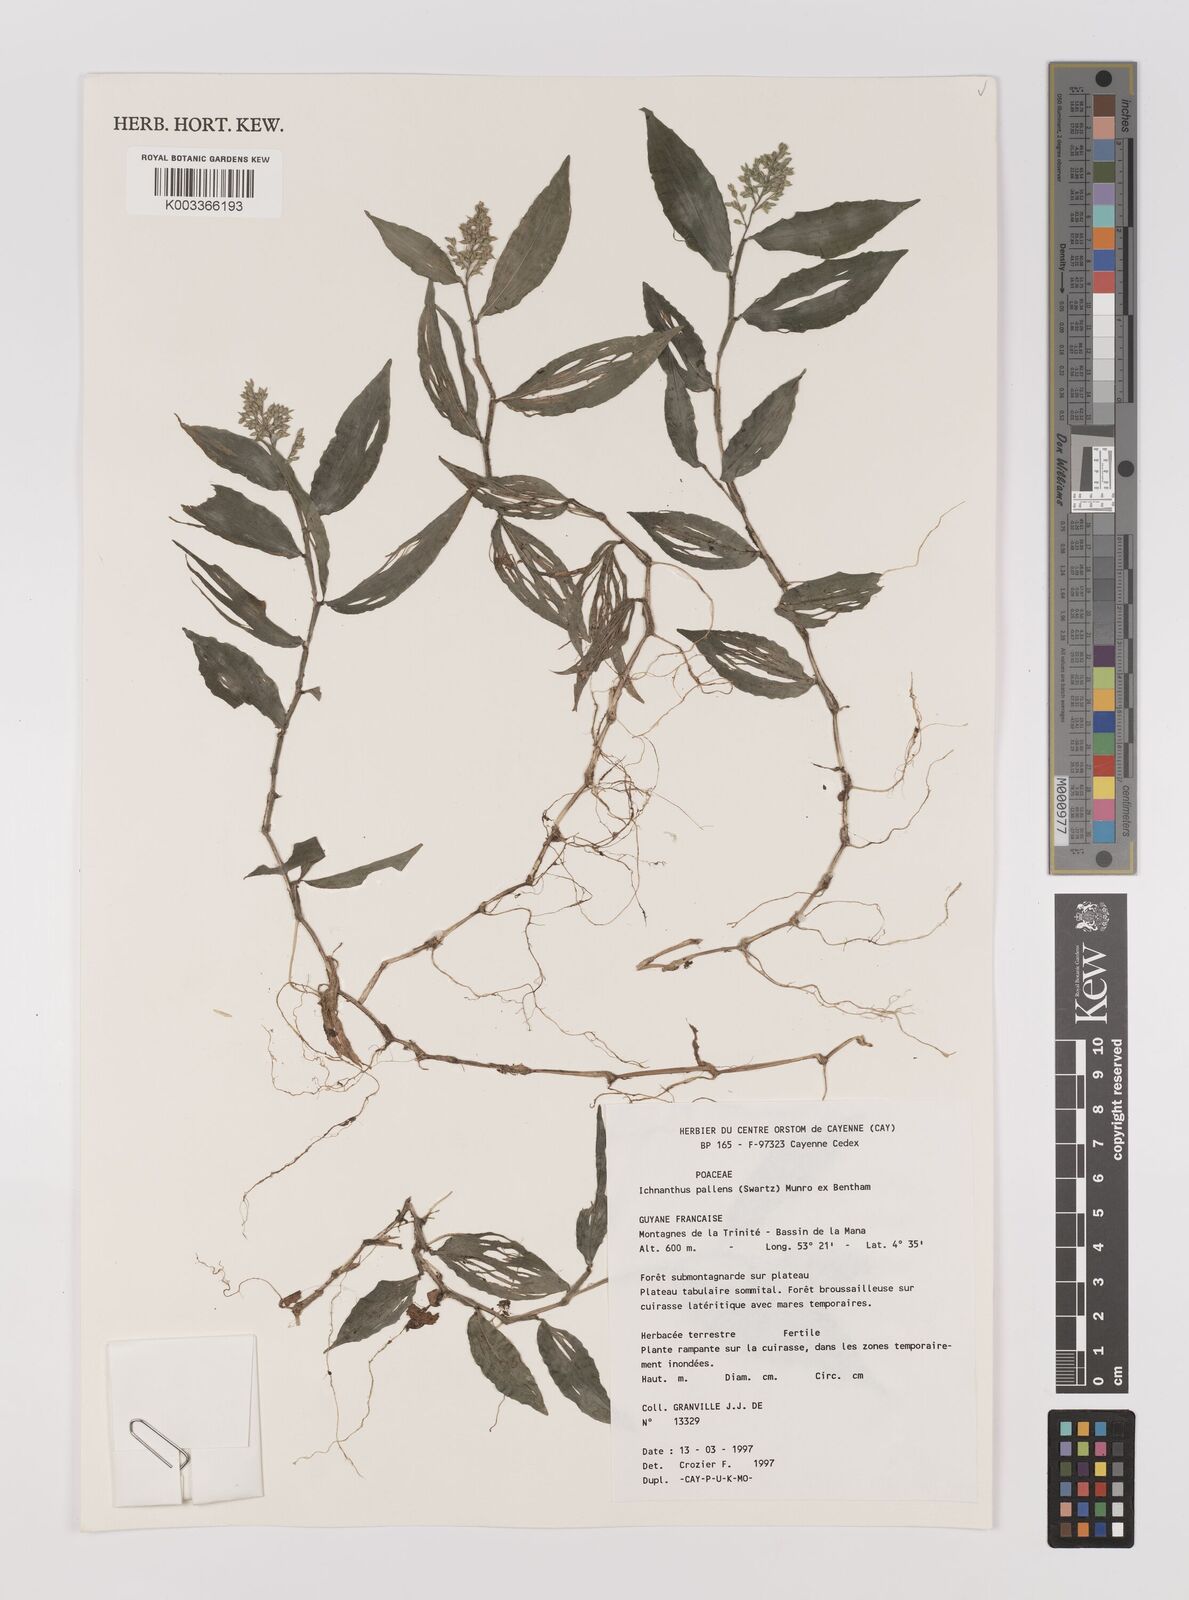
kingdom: Plantae
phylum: Tracheophyta
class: Liliopsida
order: Poales
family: Poaceae
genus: Ichnanthus
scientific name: Ichnanthus pallens
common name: Water grass
